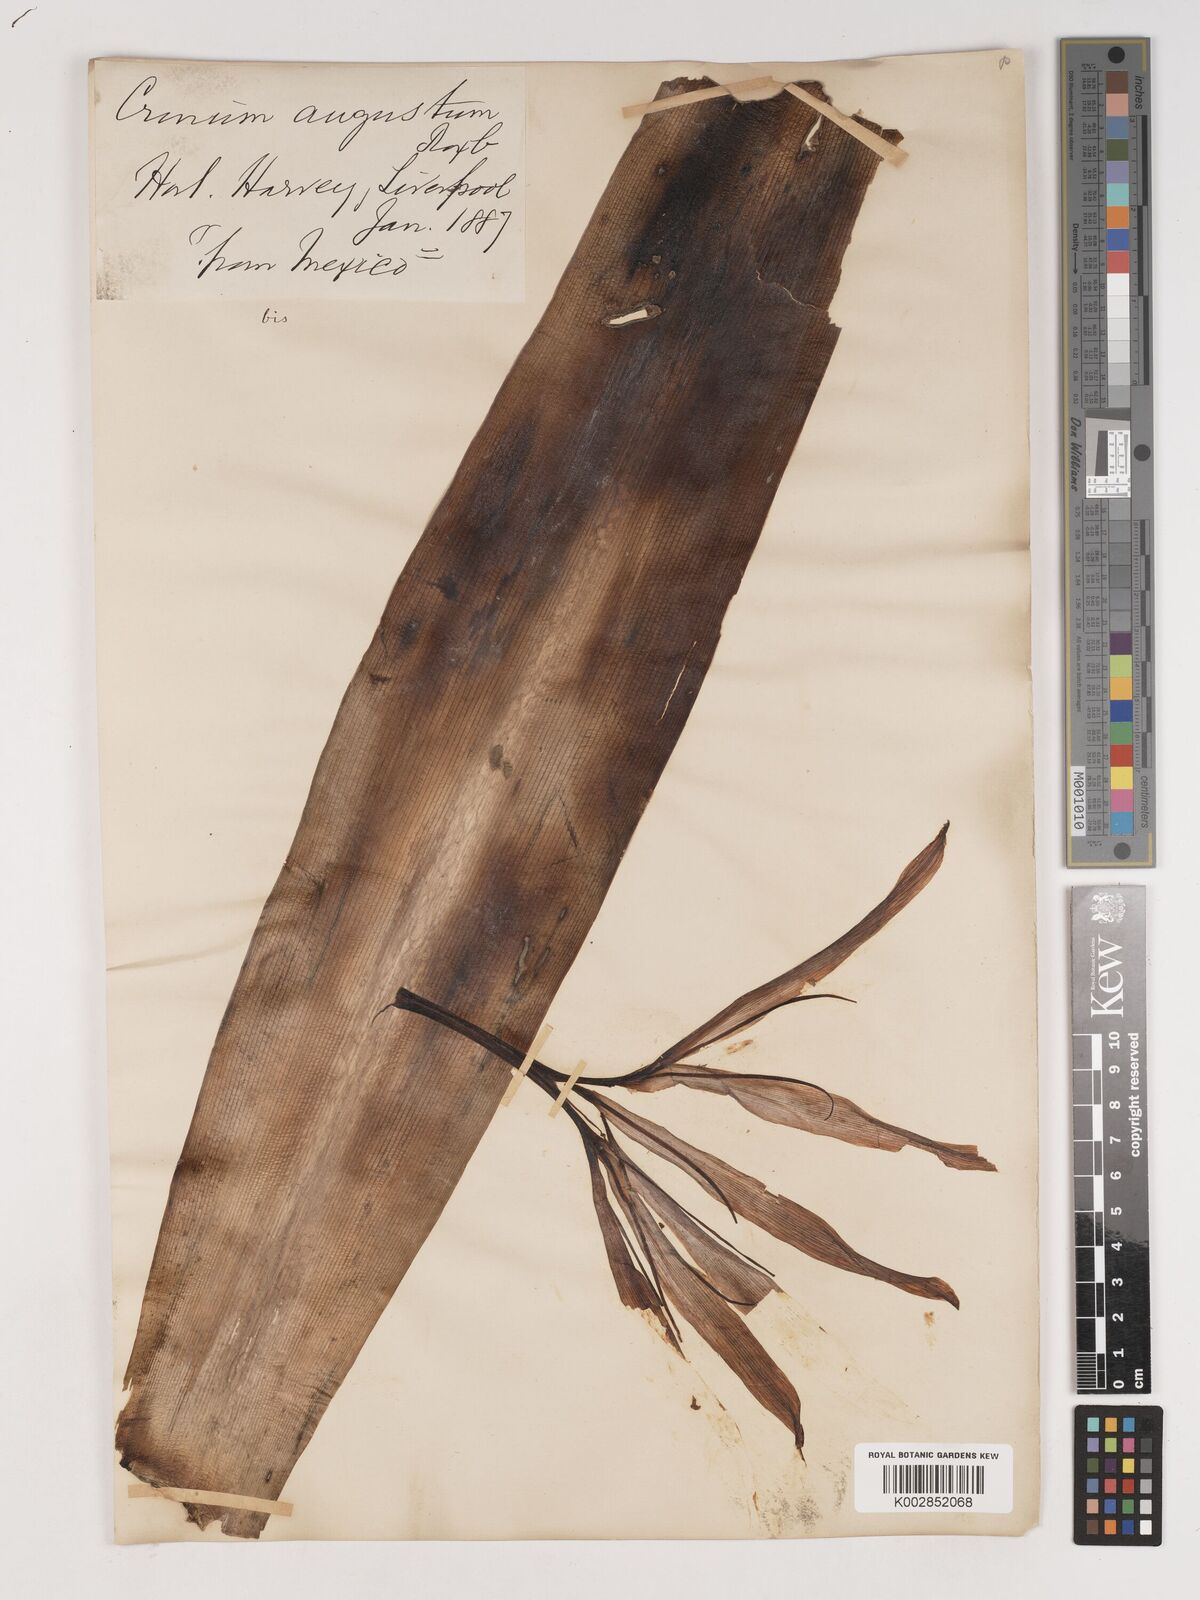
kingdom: Plantae
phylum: Tracheophyta
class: Liliopsida
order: Asparagales
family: Amaryllidaceae
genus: Crinum
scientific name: Crinum amabile
